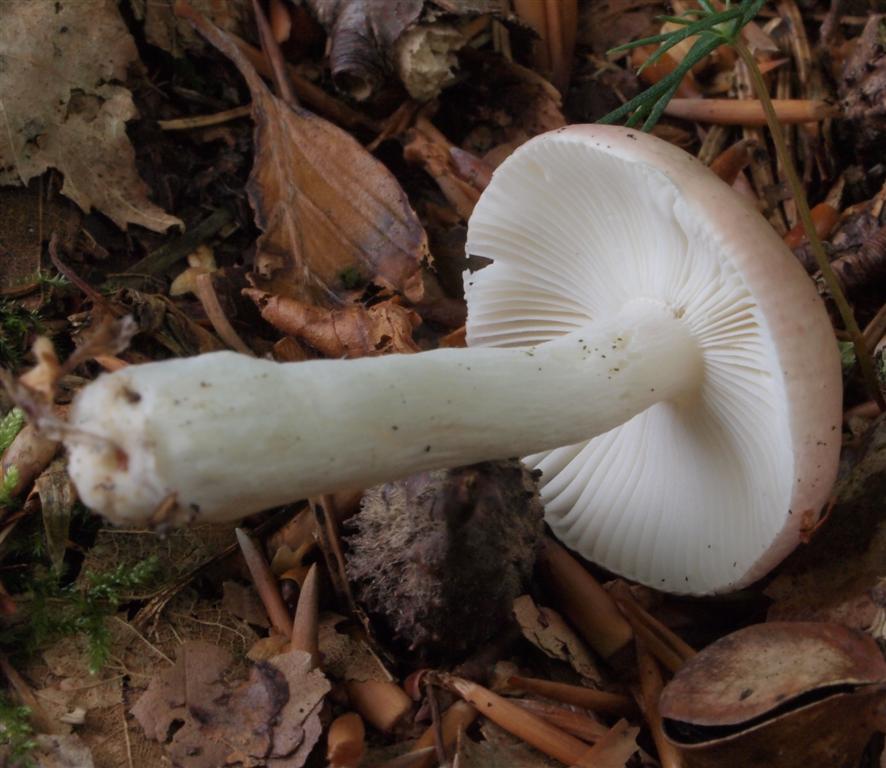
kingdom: Fungi
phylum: Basidiomycota
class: Agaricomycetes
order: Russulales
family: Russulaceae
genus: Russula
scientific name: Russula
